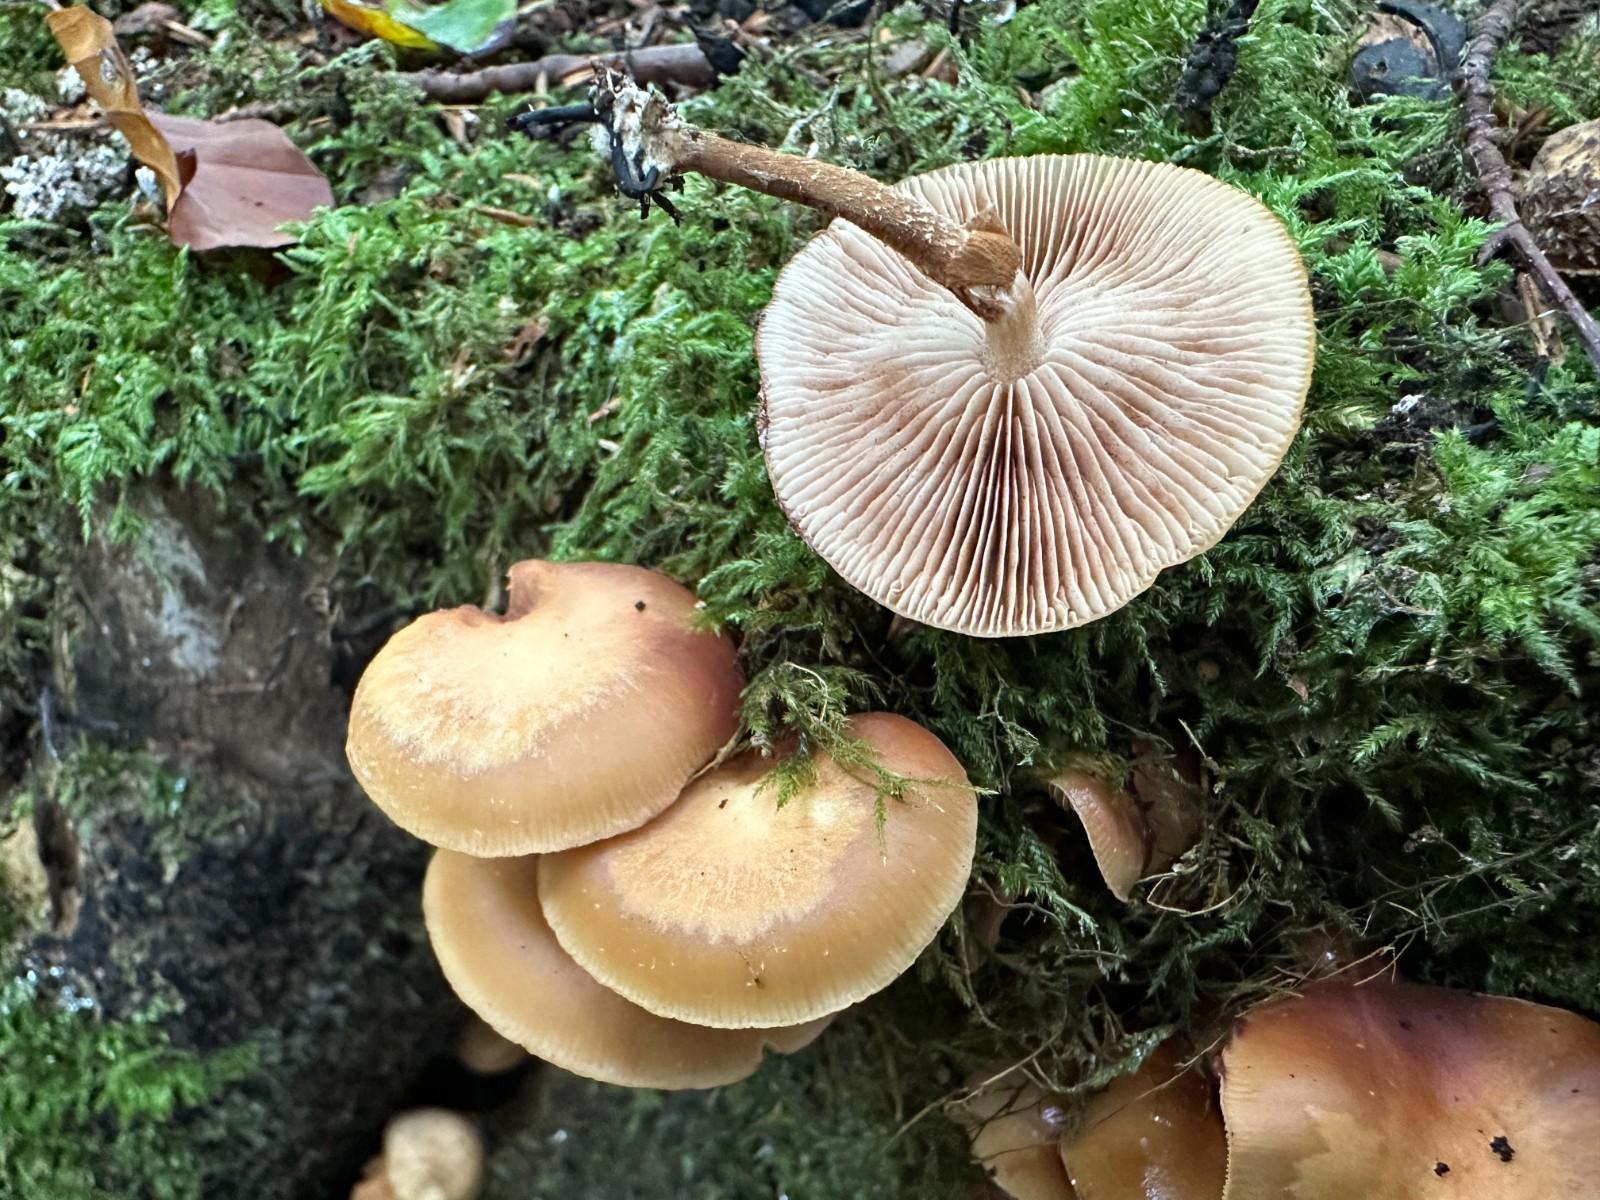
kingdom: Fungi
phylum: Basidiomycota
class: Agaricomycetes
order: Agaricales
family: Strophariaceae
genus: Kuehneromyces
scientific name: Kuehneromyces mutabilis
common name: foranderlig skælhat
